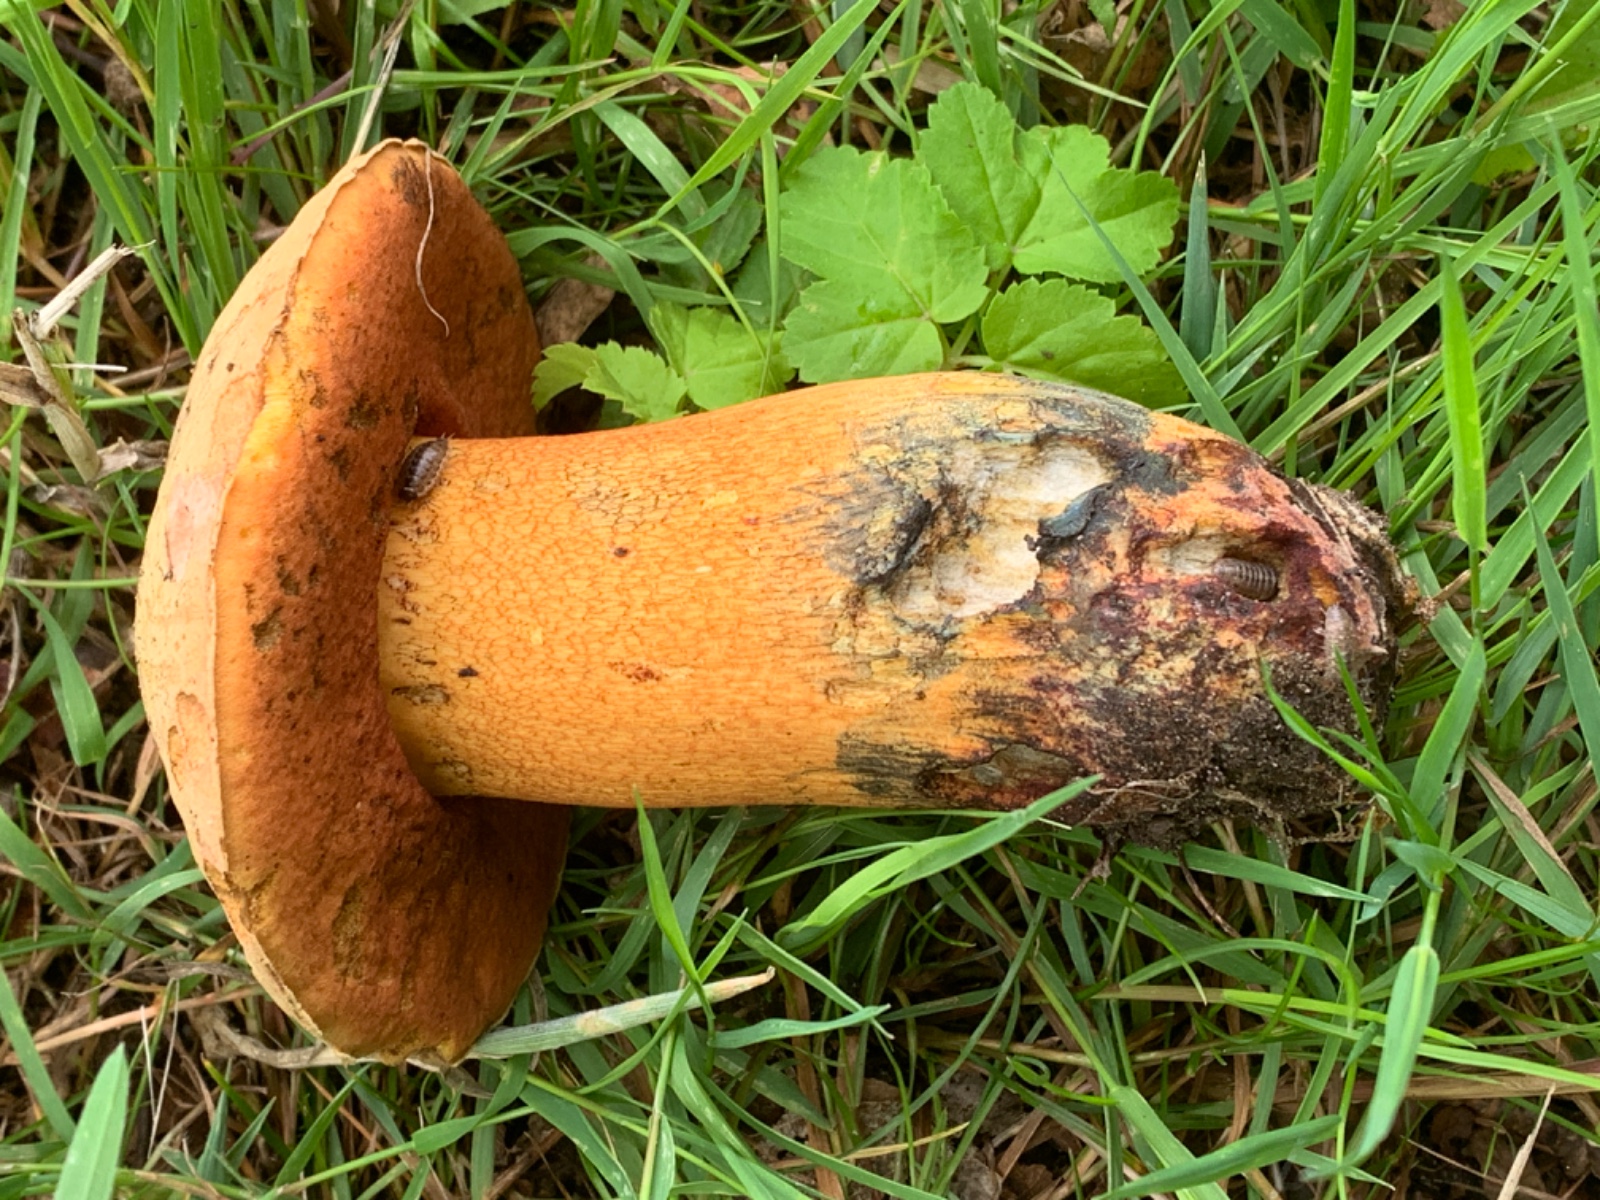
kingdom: Fungi
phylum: Basidiomycota
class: Agaricomycetes
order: Boletales
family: Boletaceae
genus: Suillellus
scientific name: Suillellus luridus
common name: netstokket indigorørhat
